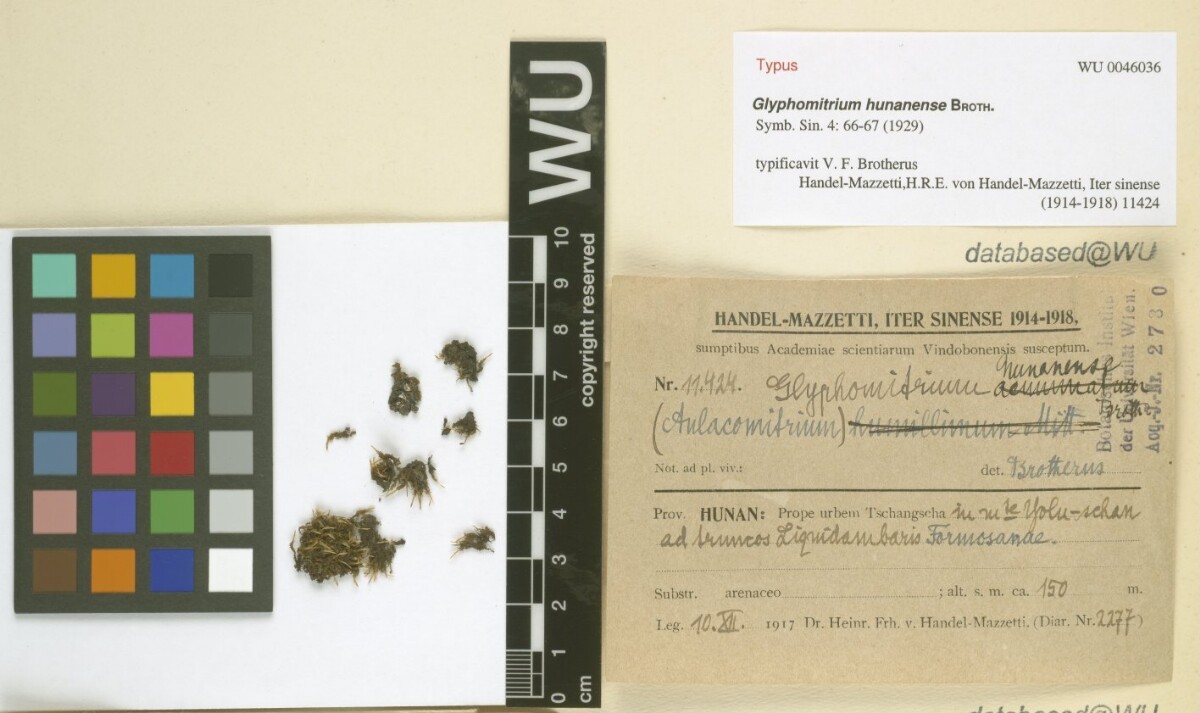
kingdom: Plantae
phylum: Bryophyta
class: Bryopsida
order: Dicranales
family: Rhabdoweisiaceae
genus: Glyphomitrium
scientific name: Glyphomitrium hunanense
